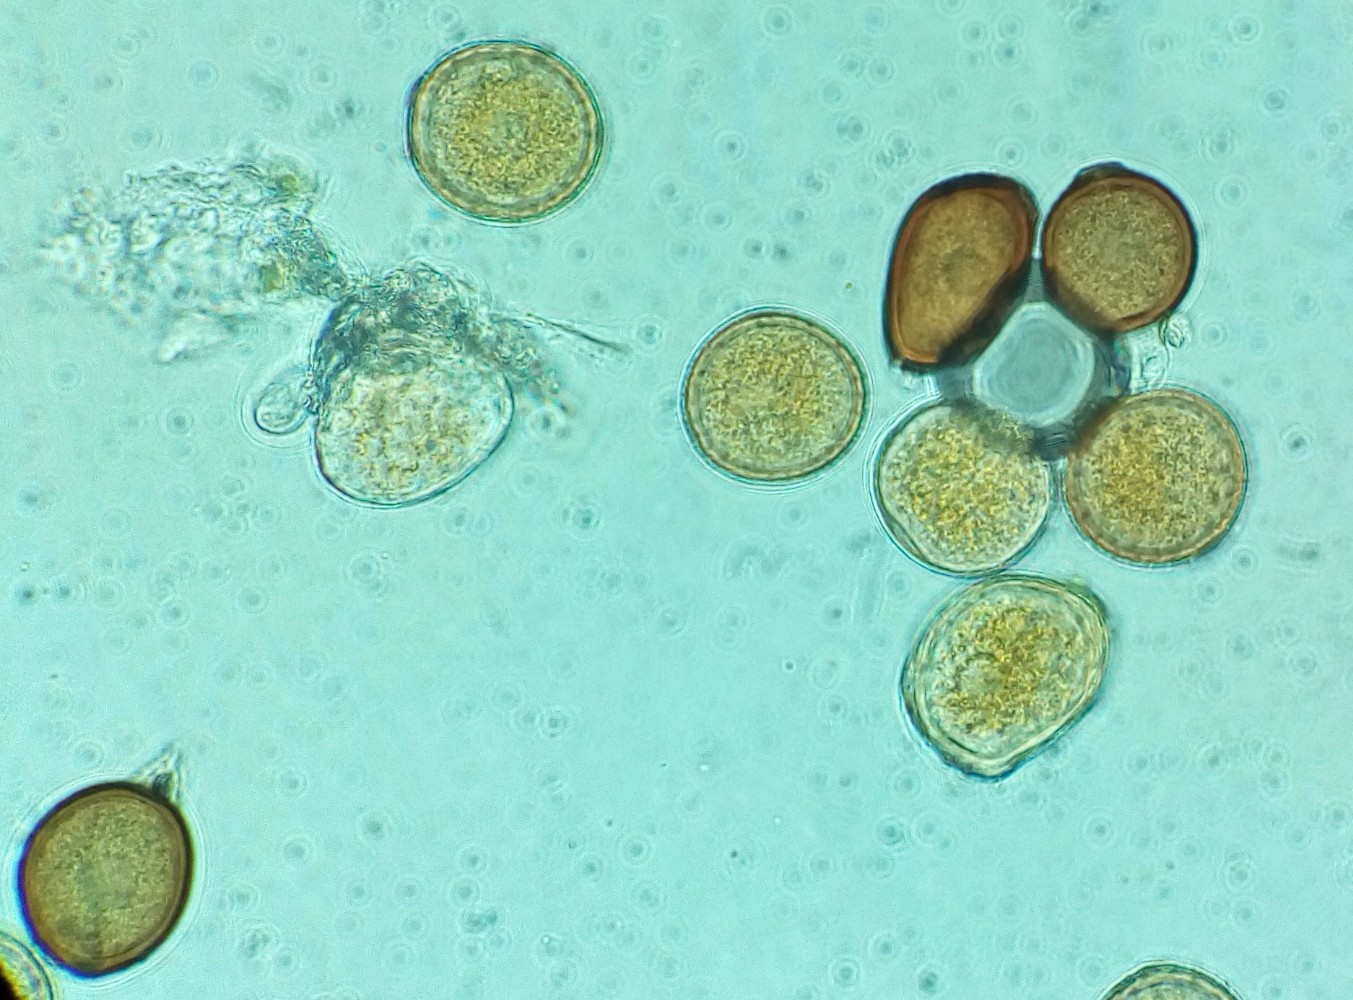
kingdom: Fungi
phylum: Basidiomycota
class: Pucciniomycetes
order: Pucciniales
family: Pucciniaceae
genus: Uromyces
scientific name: Uromyces pisi-sativi
